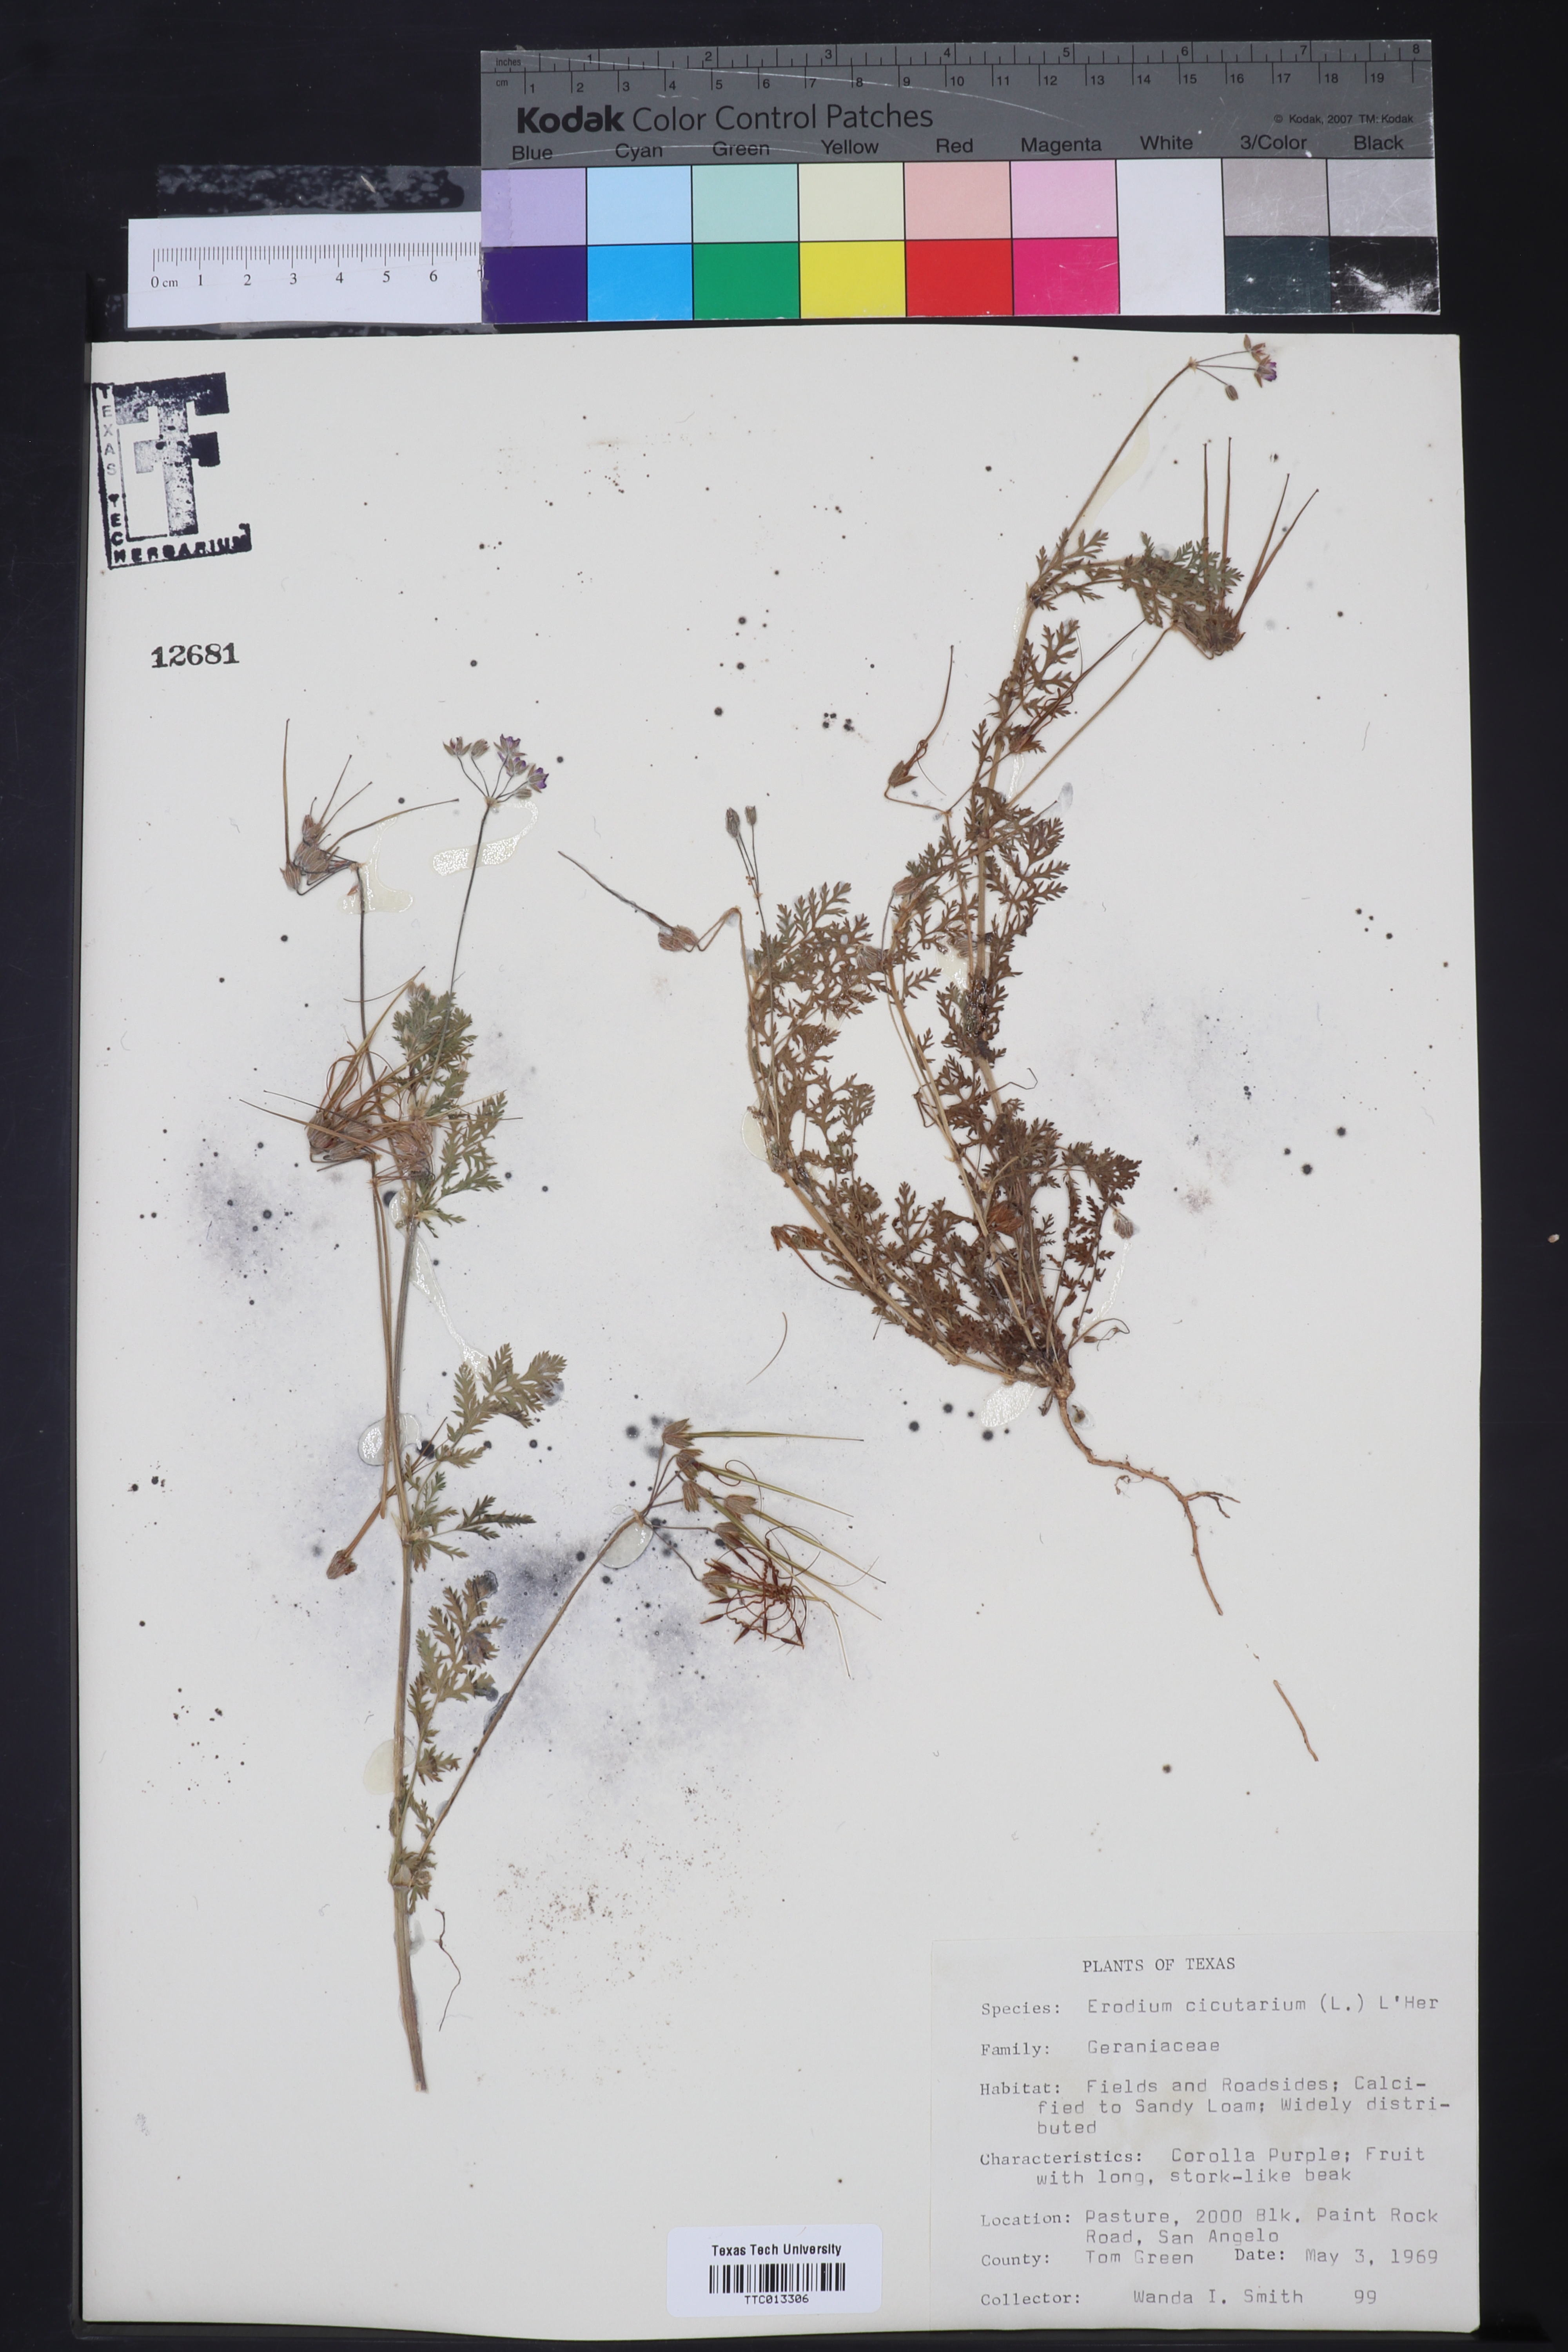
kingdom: Plantae
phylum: Tracheophyta
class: Magnoliopsida
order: Geraniales
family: Geraniaceae
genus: Erodium
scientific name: Erodium cicutarium
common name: Common stork's-bill
